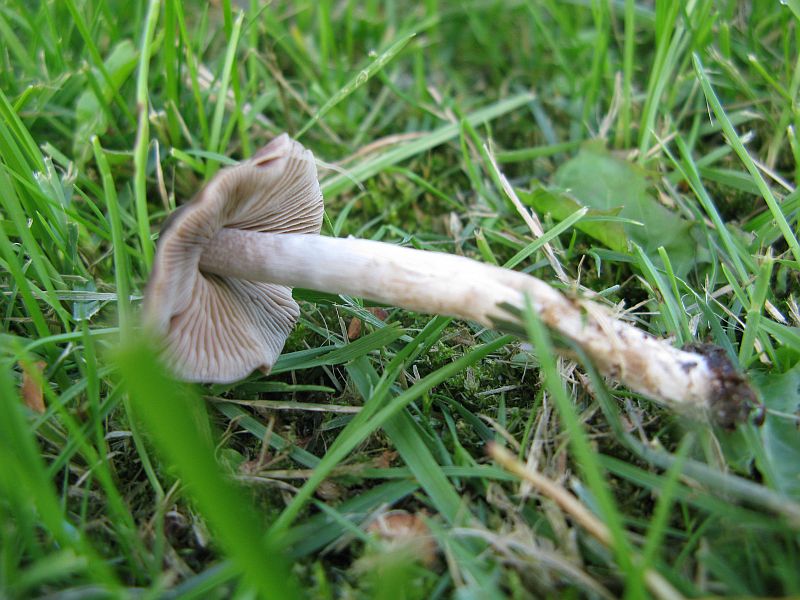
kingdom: Fungi
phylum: Basidiomycota
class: Agaricomycetes
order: Agaricales
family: Hymenogastraceae
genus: Naucoria
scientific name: Naucoria bohemica
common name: birke-knaphat
